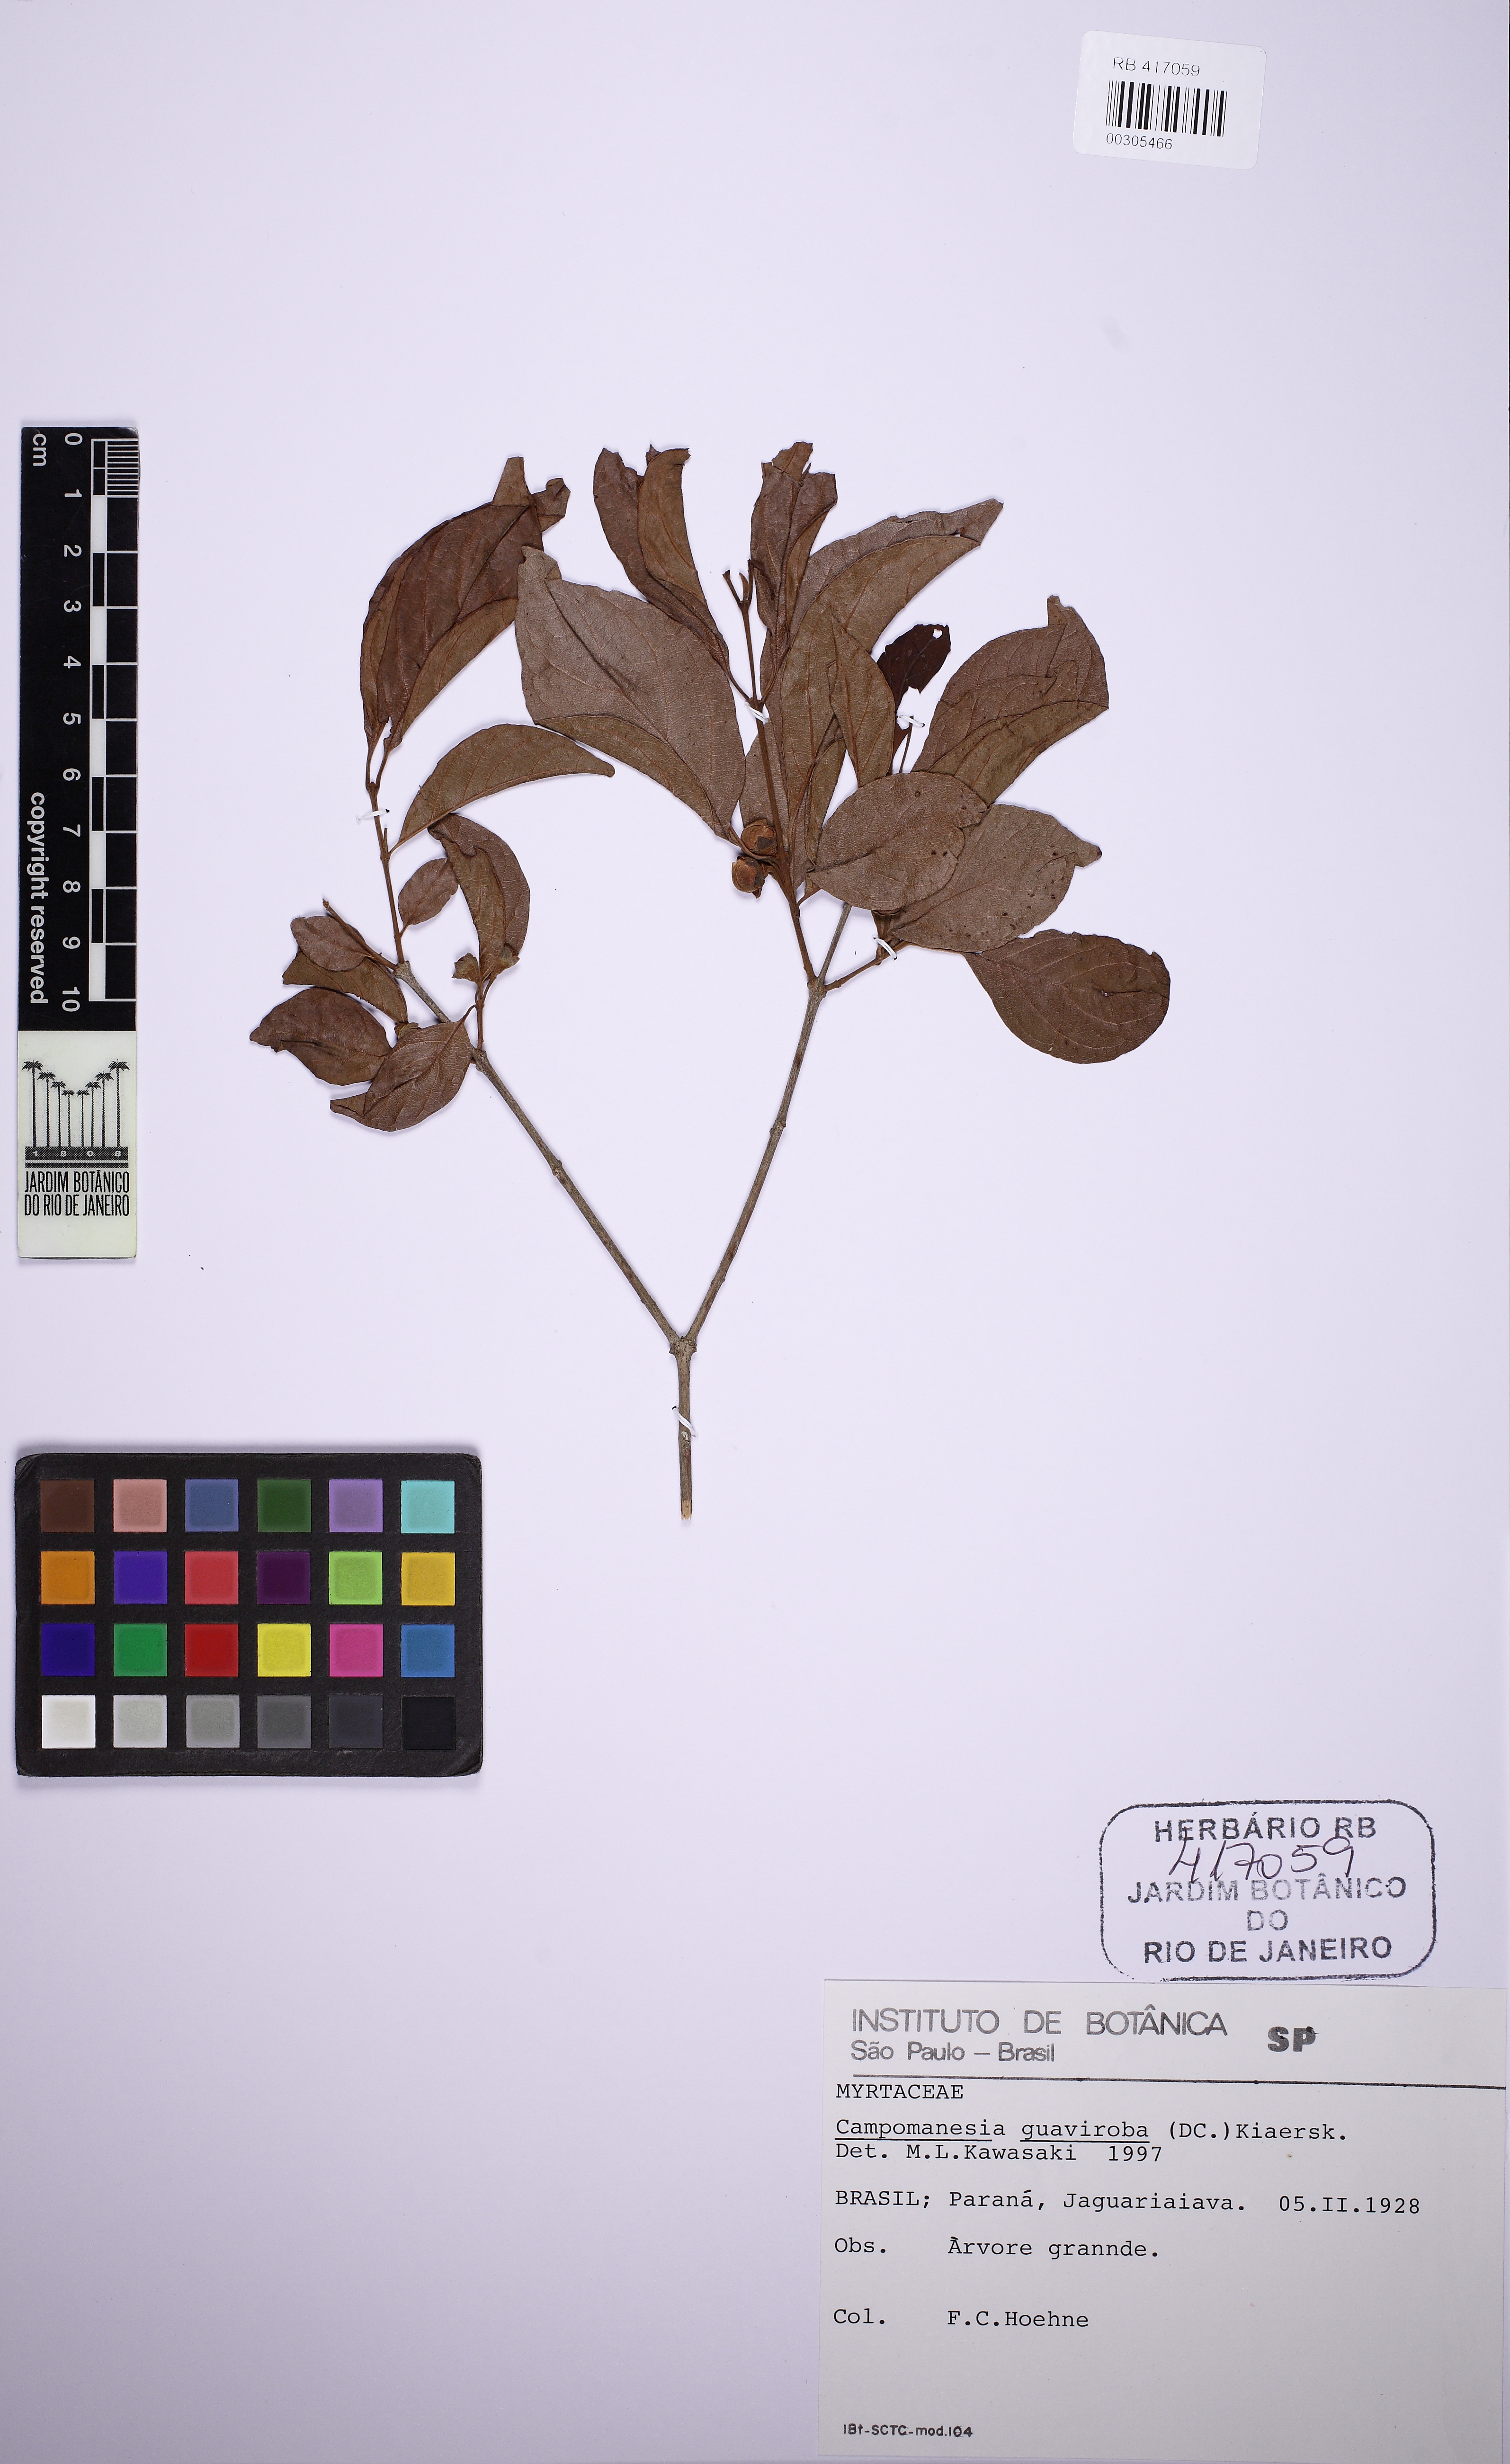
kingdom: Plantae
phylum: Tracheophyta
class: Magnoliopsida
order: Myrtales
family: Myrtaceae
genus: Campomanesia
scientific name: Campomanesia guaviroba
